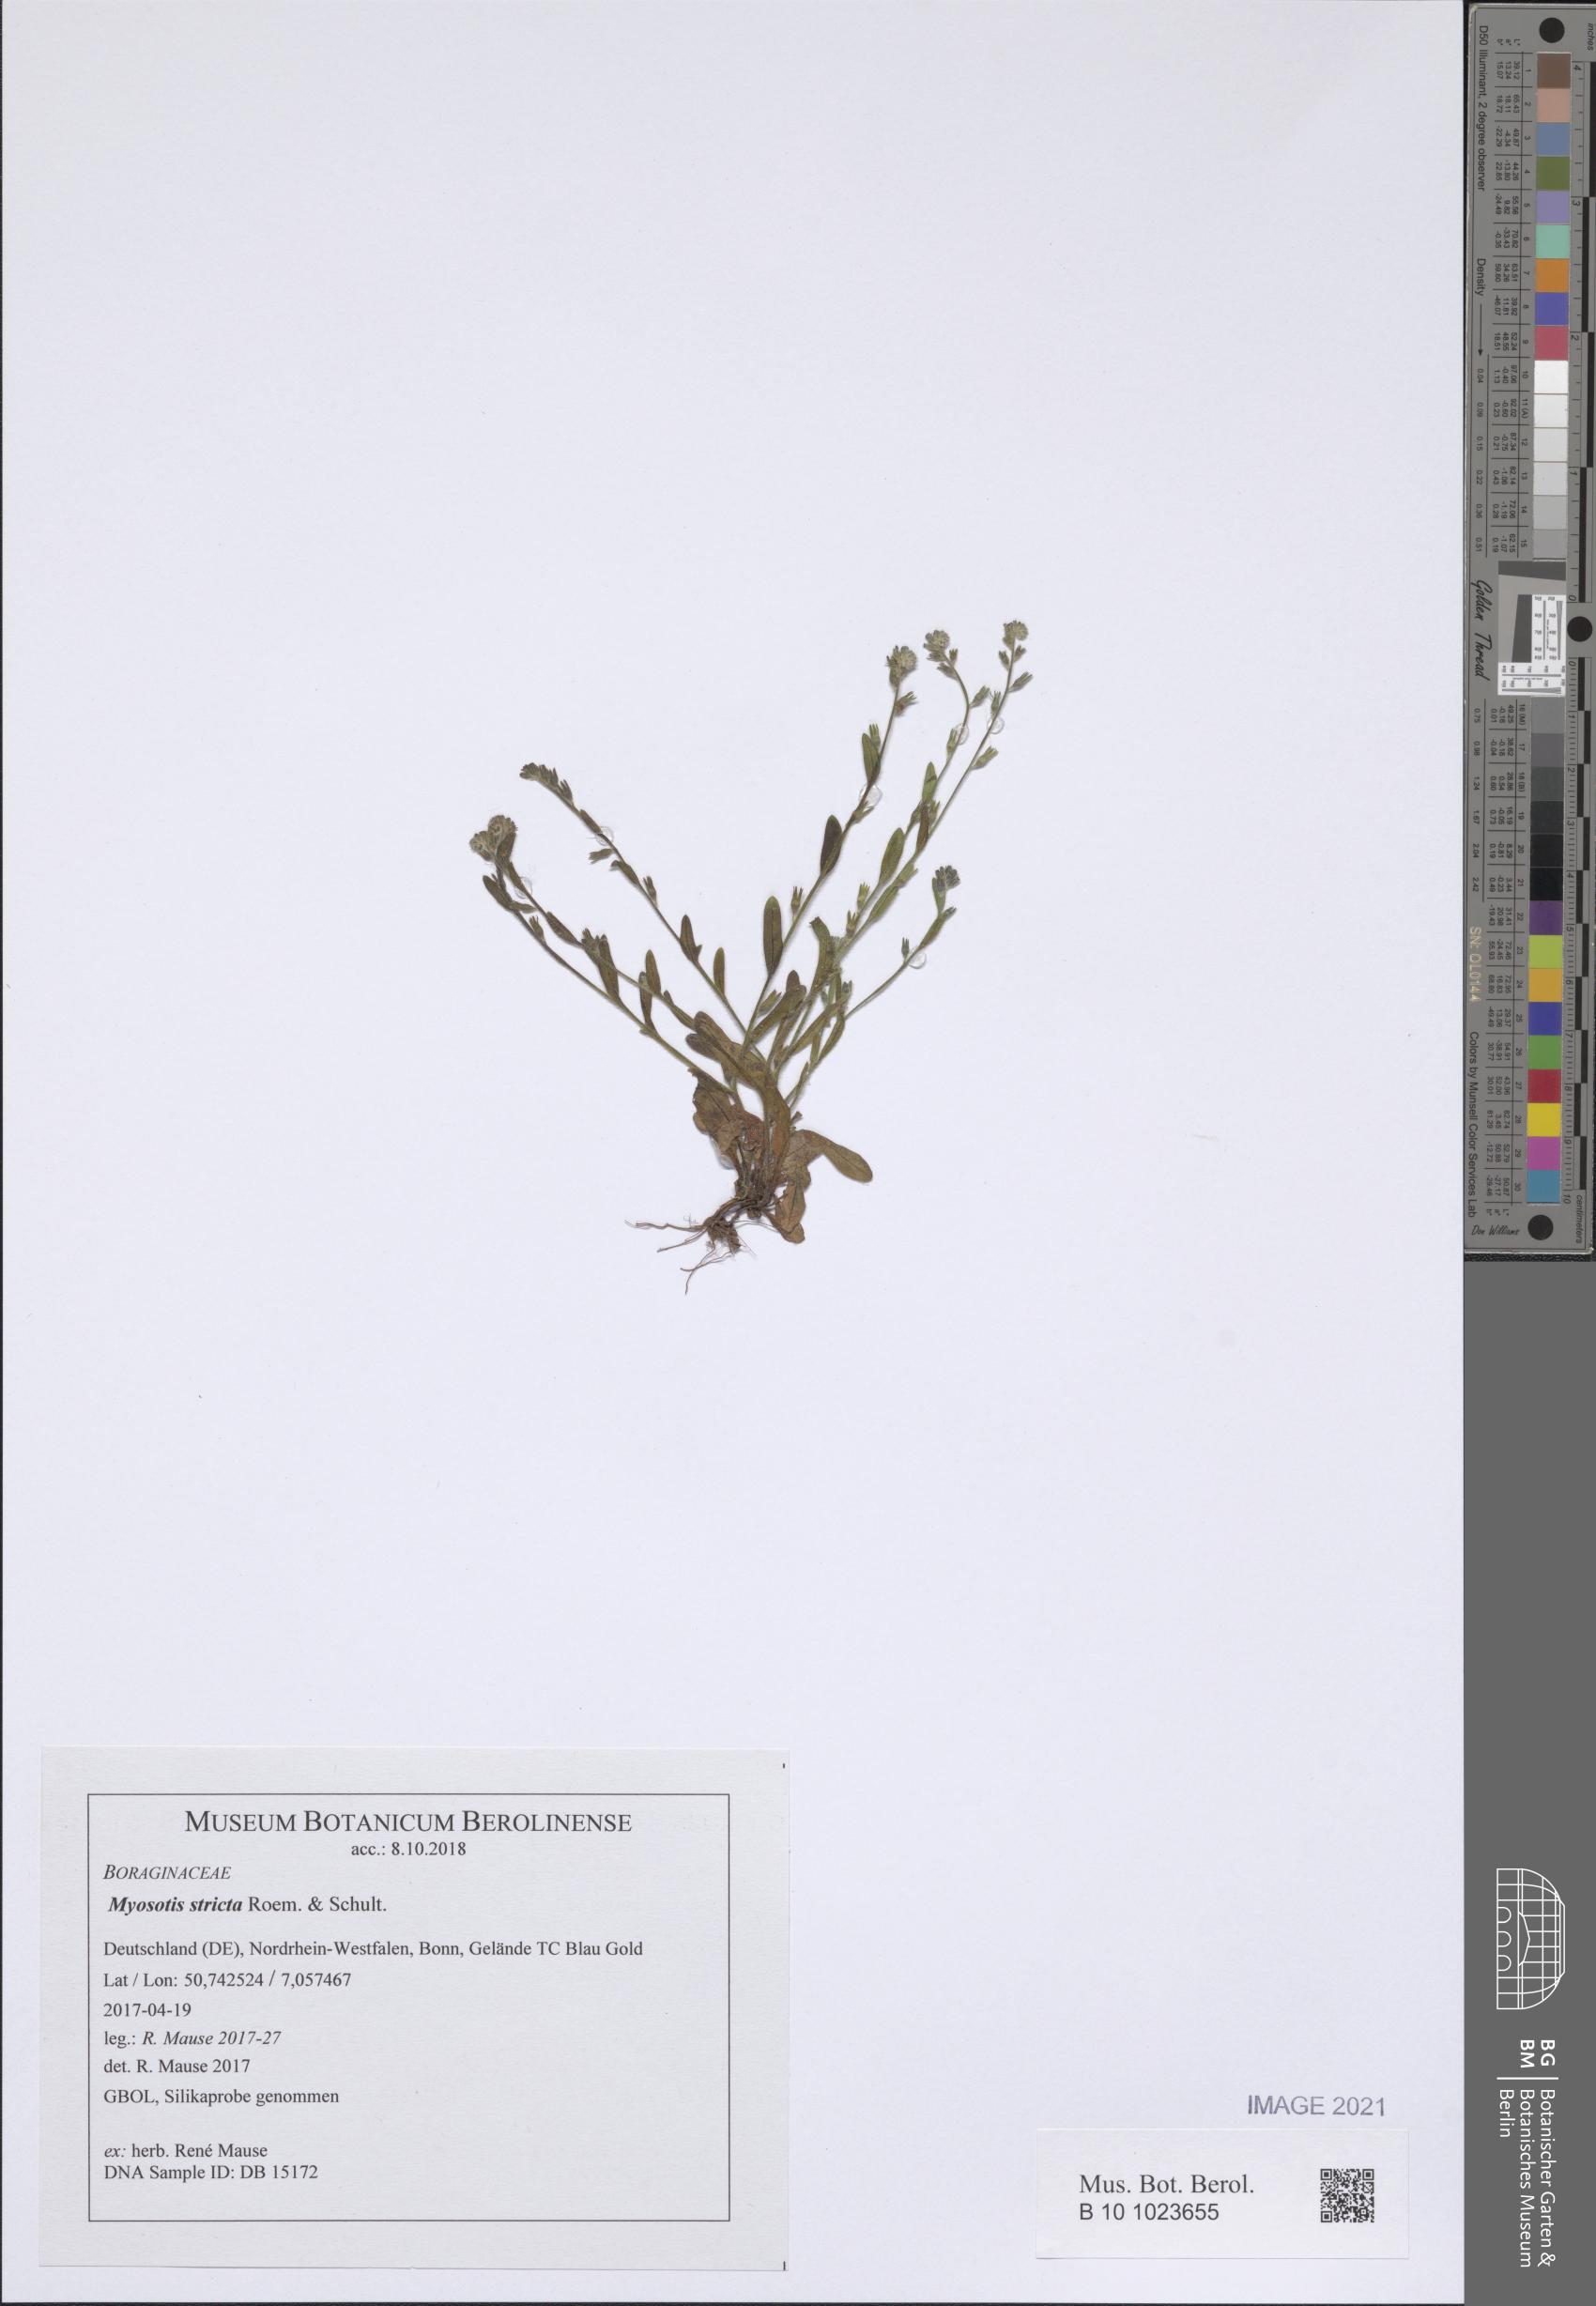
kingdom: Plantae
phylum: Tracheophyta
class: Magnoliopsida
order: Boraginales
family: Boraginaceae
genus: Myosotis
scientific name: Myosotis stricta
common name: Strict forget-me-not
